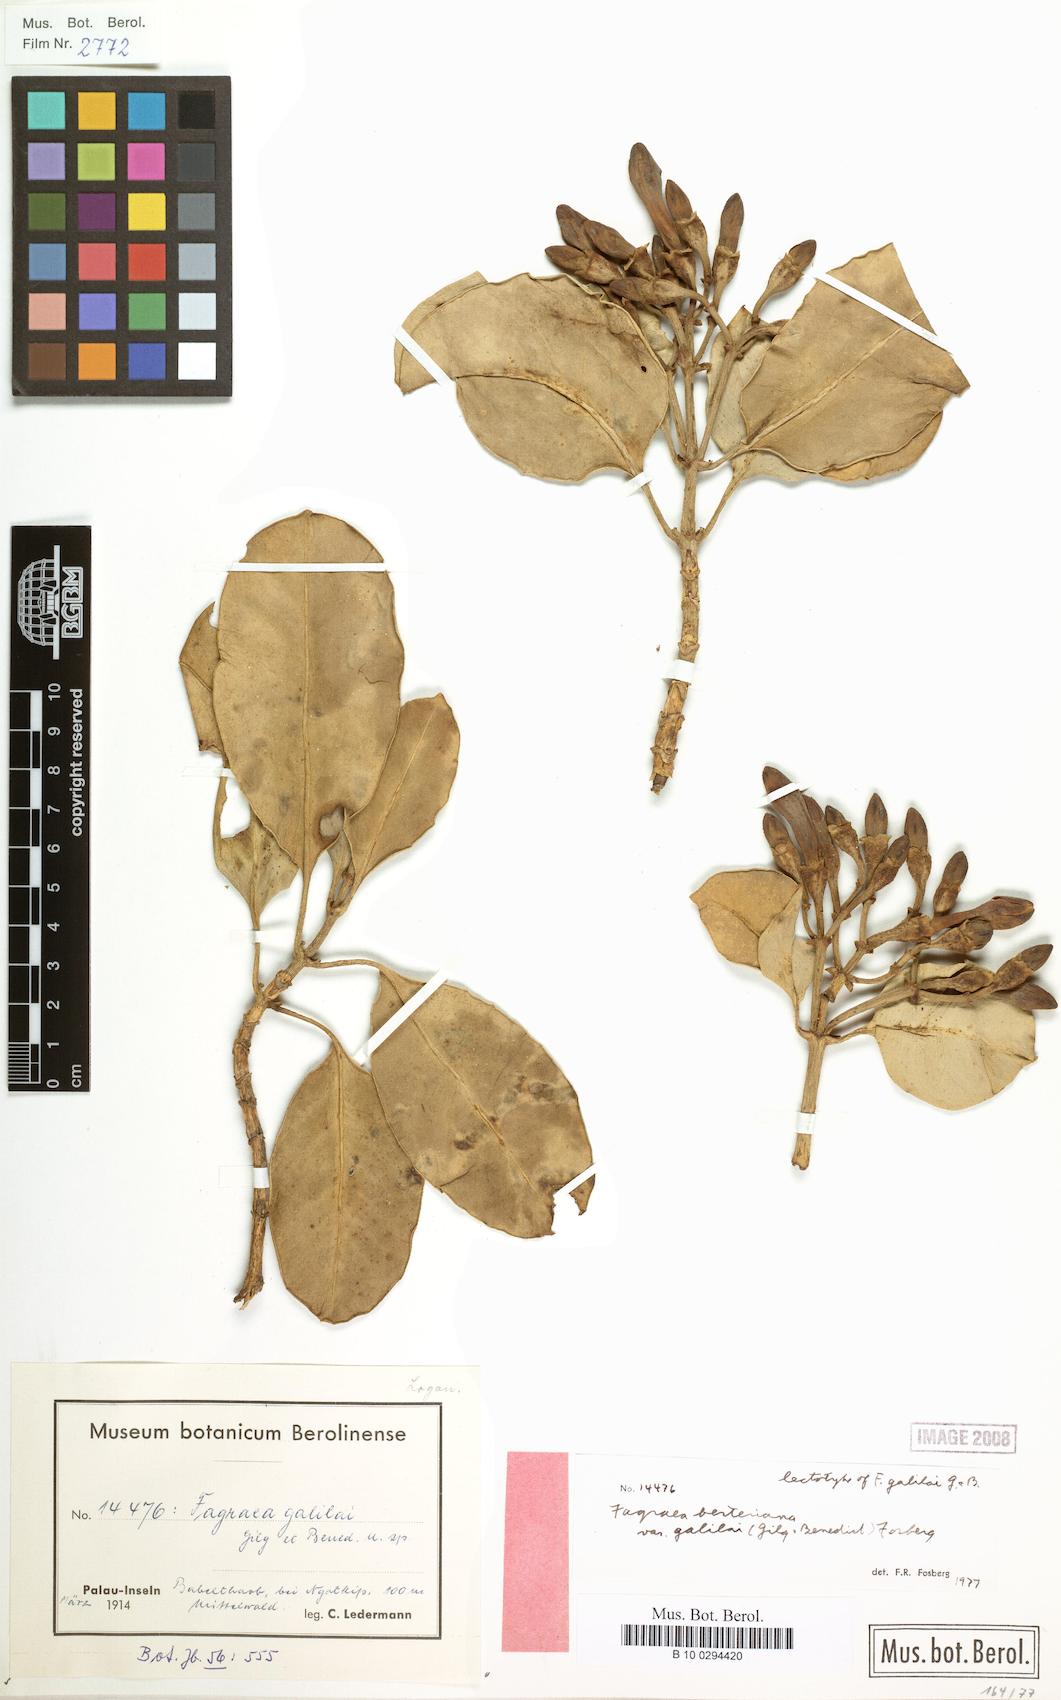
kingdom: Plantae
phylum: Tracheophyta
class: Magnoliopsida
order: Gentianales
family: Gentianaceae
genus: Fagraea
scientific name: Fagraea berteroana
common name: Cape jitta
